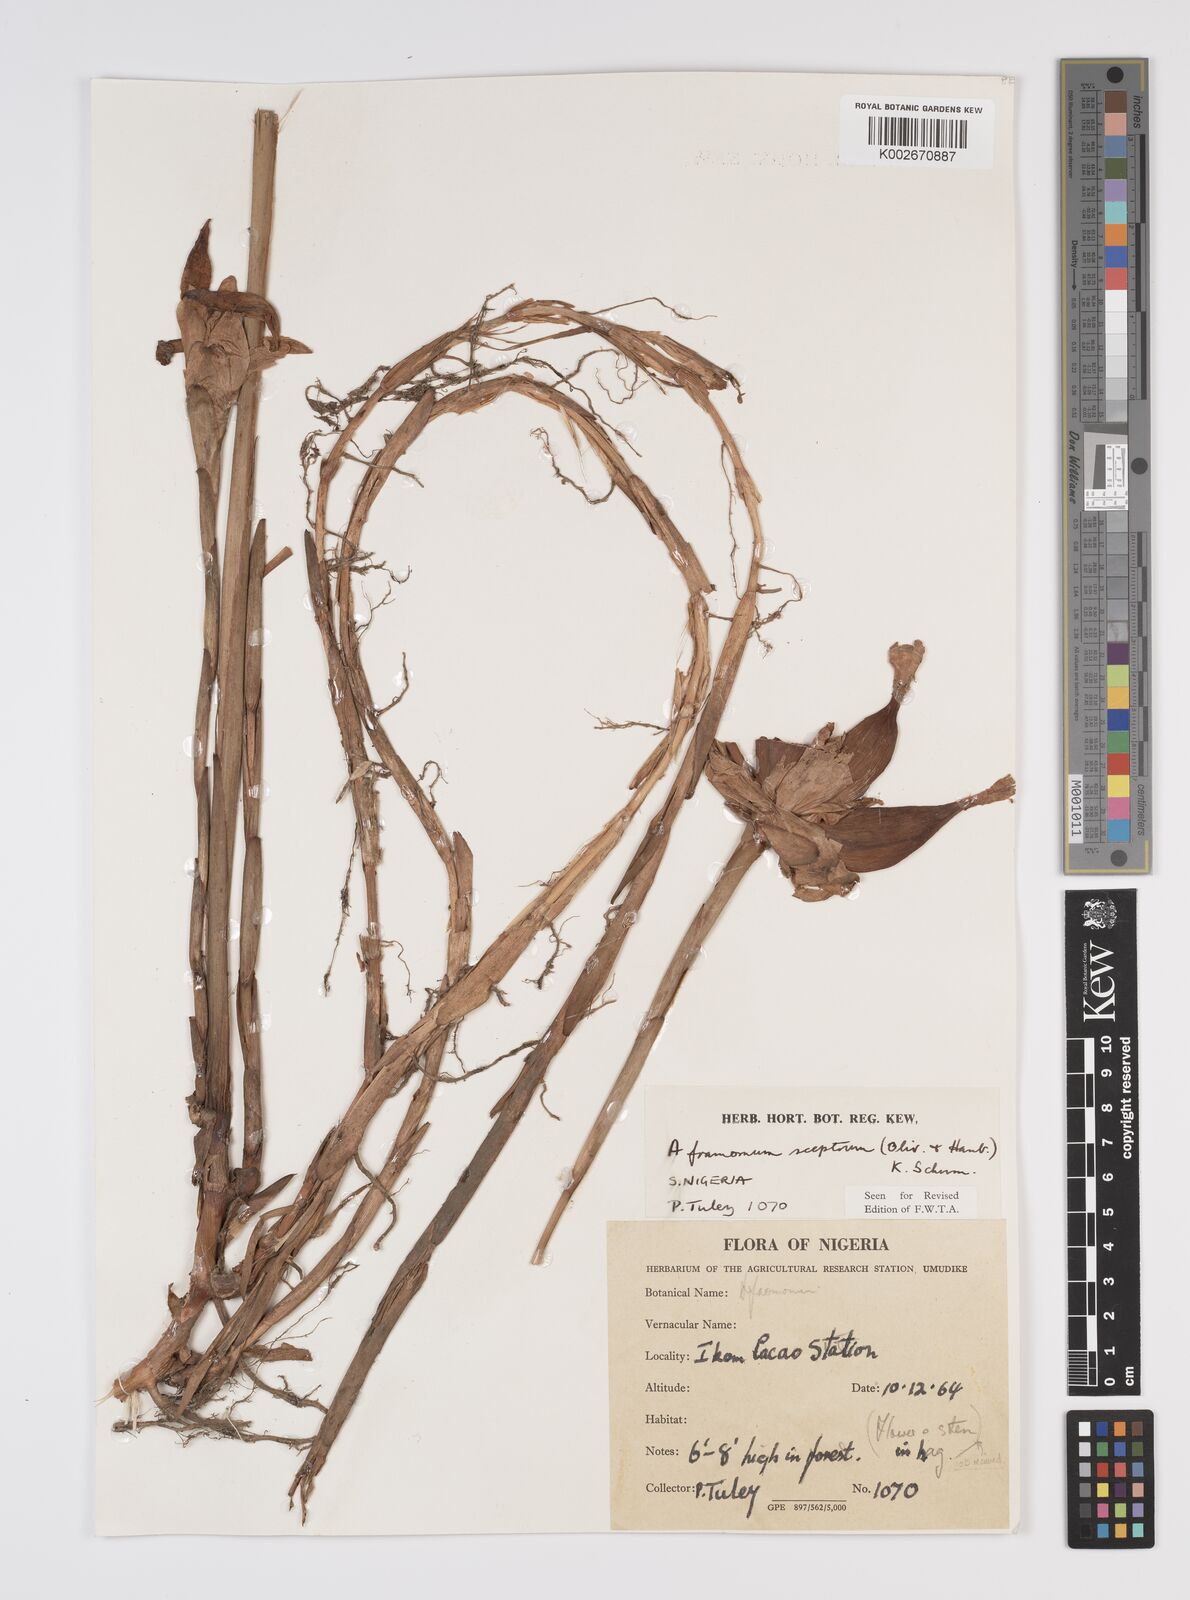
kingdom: Plantae
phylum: Tracheophyta
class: Liliopsida
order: Zingiberales
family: Zingiberaceae
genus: Aframomum
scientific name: Aframomum cereum
